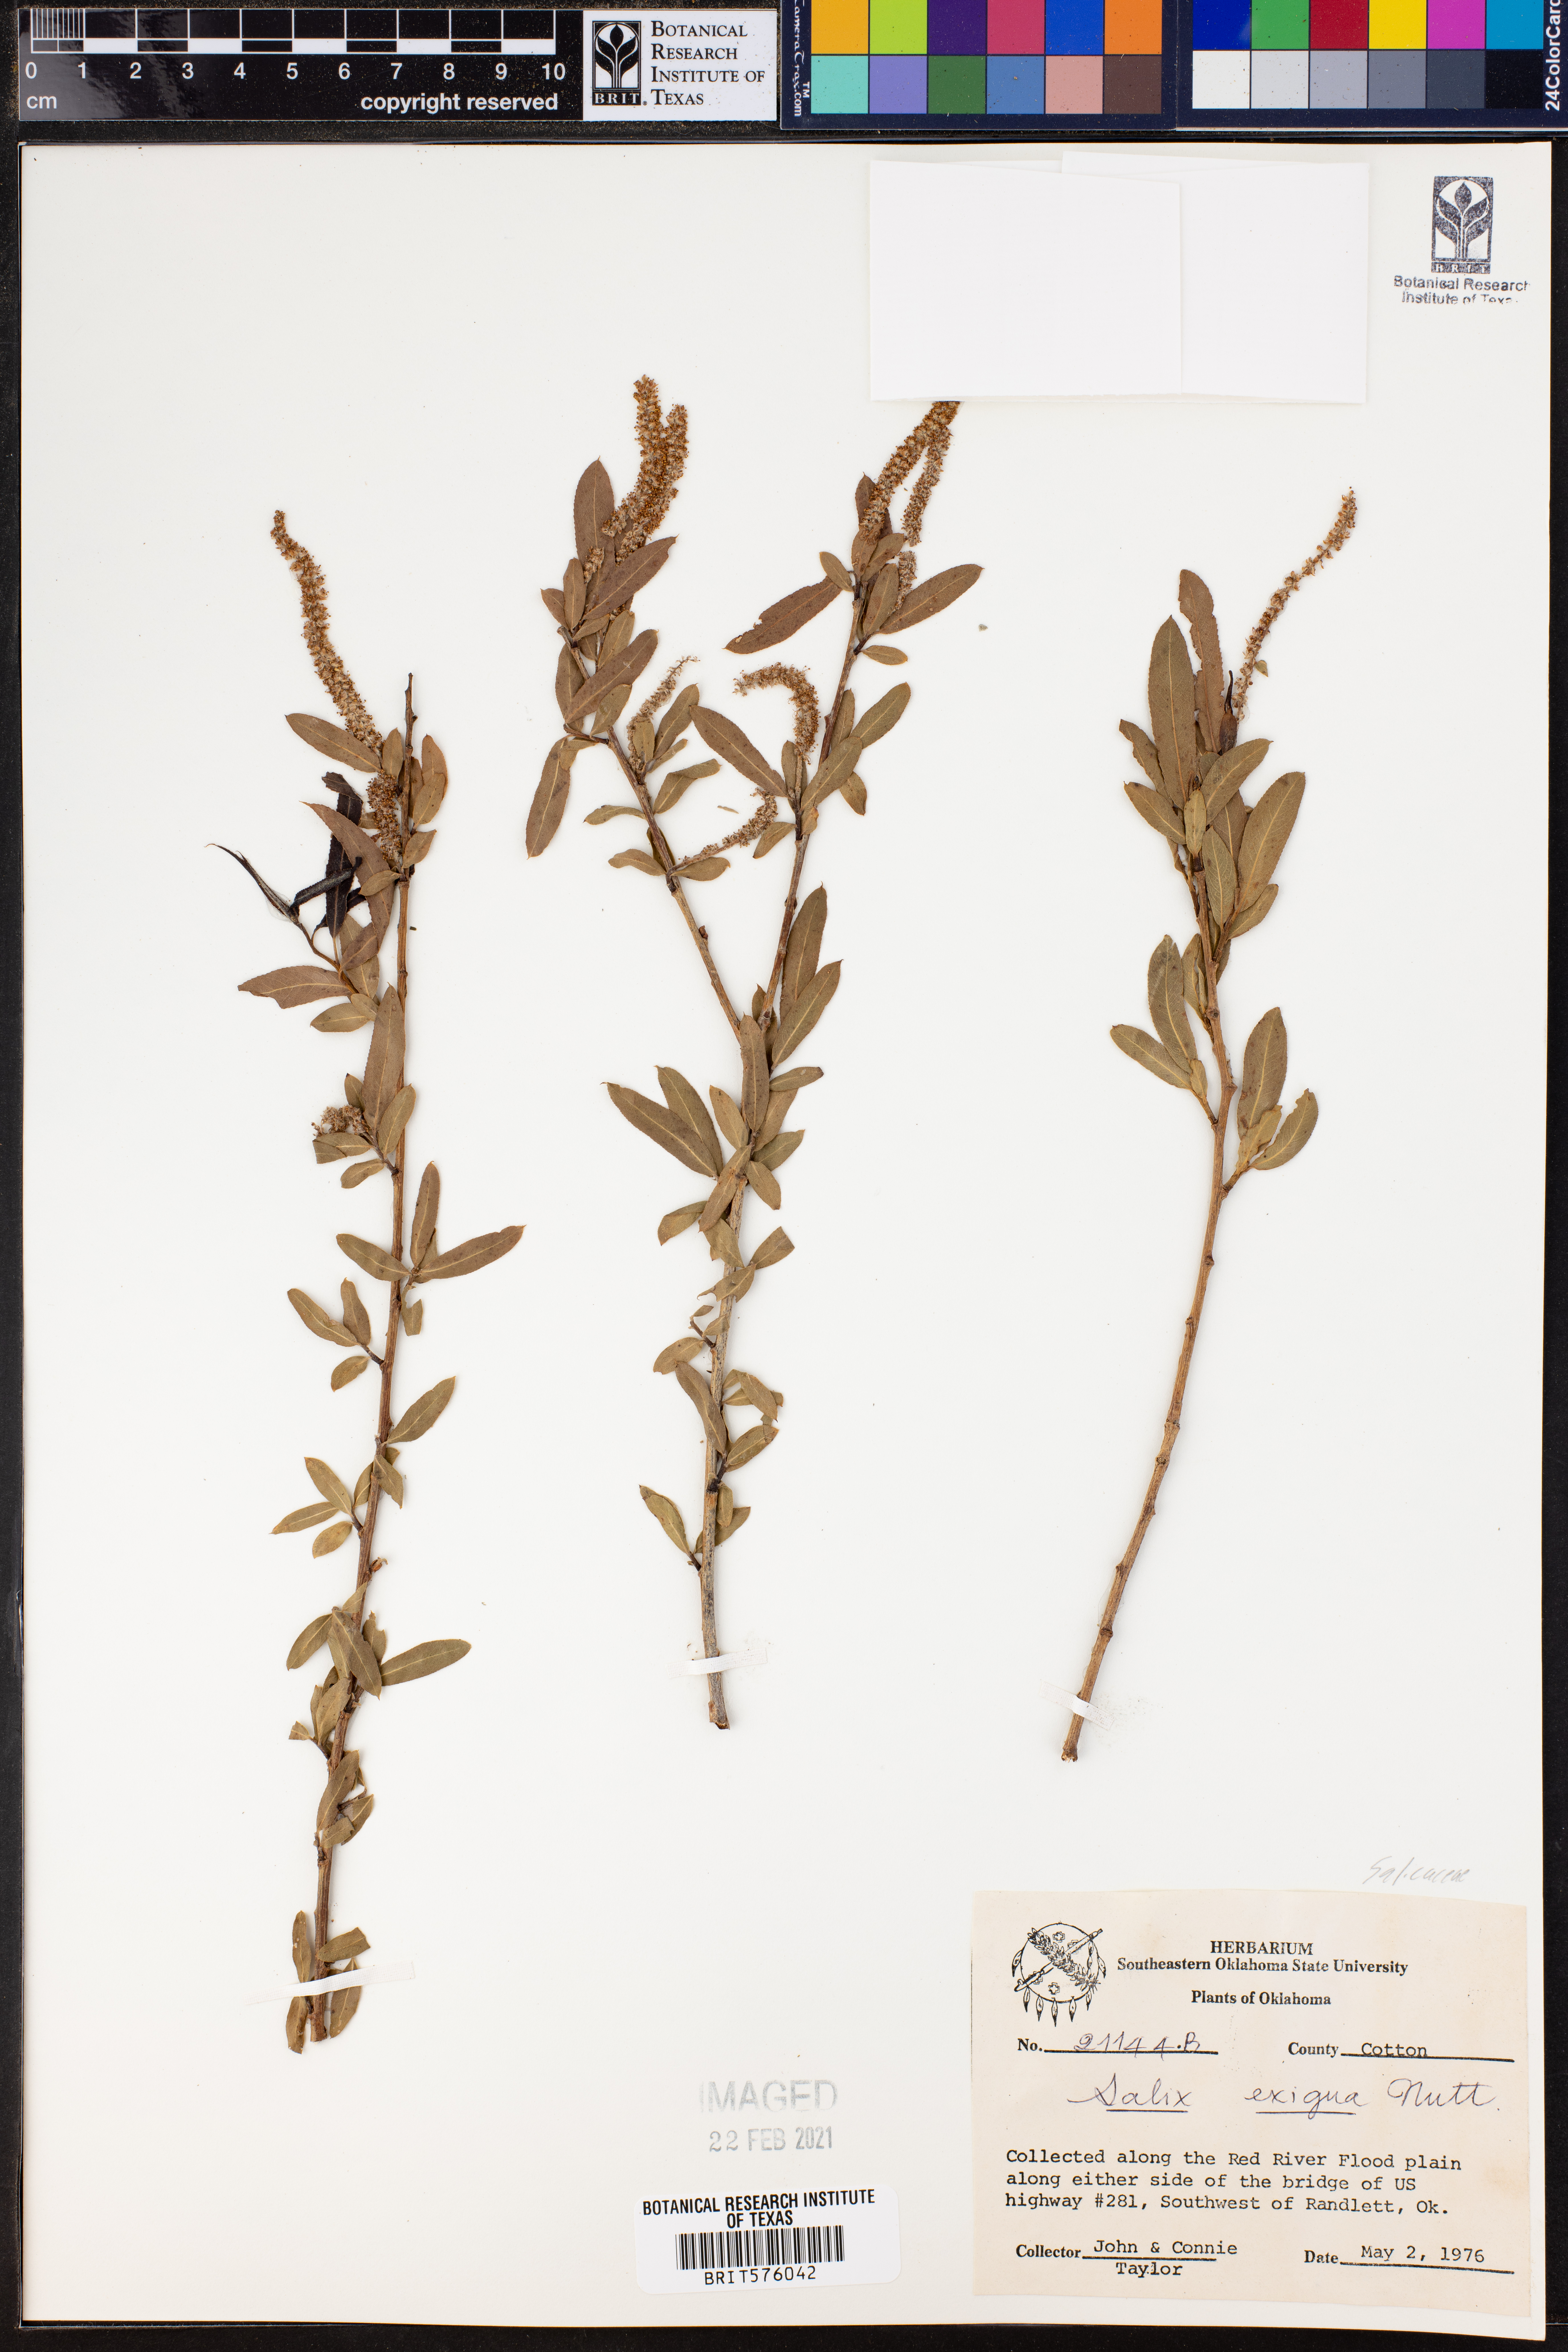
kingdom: Plantae
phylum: Tracheophyta
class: Magnoliopsida
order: Malpighiales
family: Salicaceae
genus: Salix
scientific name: Salix exigua
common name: Coyote willow
